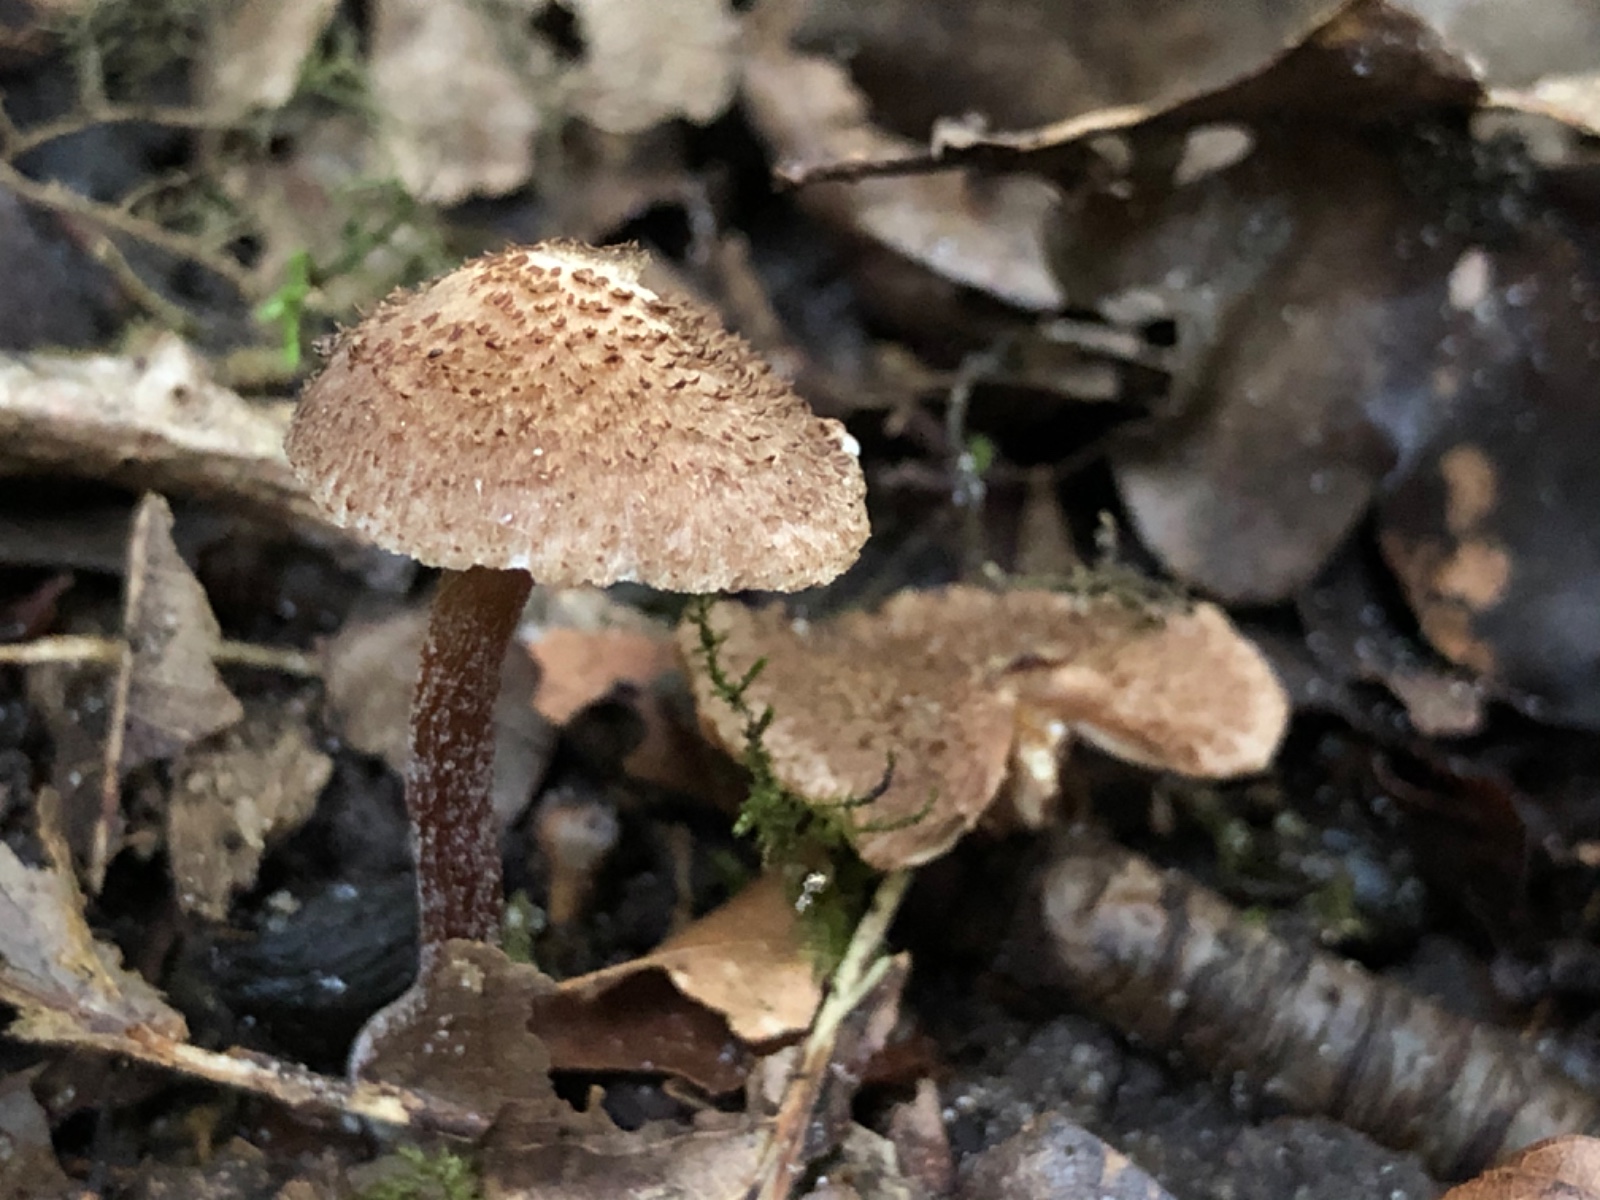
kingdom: Fungi
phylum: Basidiomycota
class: Agaricomycetes
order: Agaricales
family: Inocybaceae
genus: Inocybe
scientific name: Inocybe calospora
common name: pigsporet trævlhat
